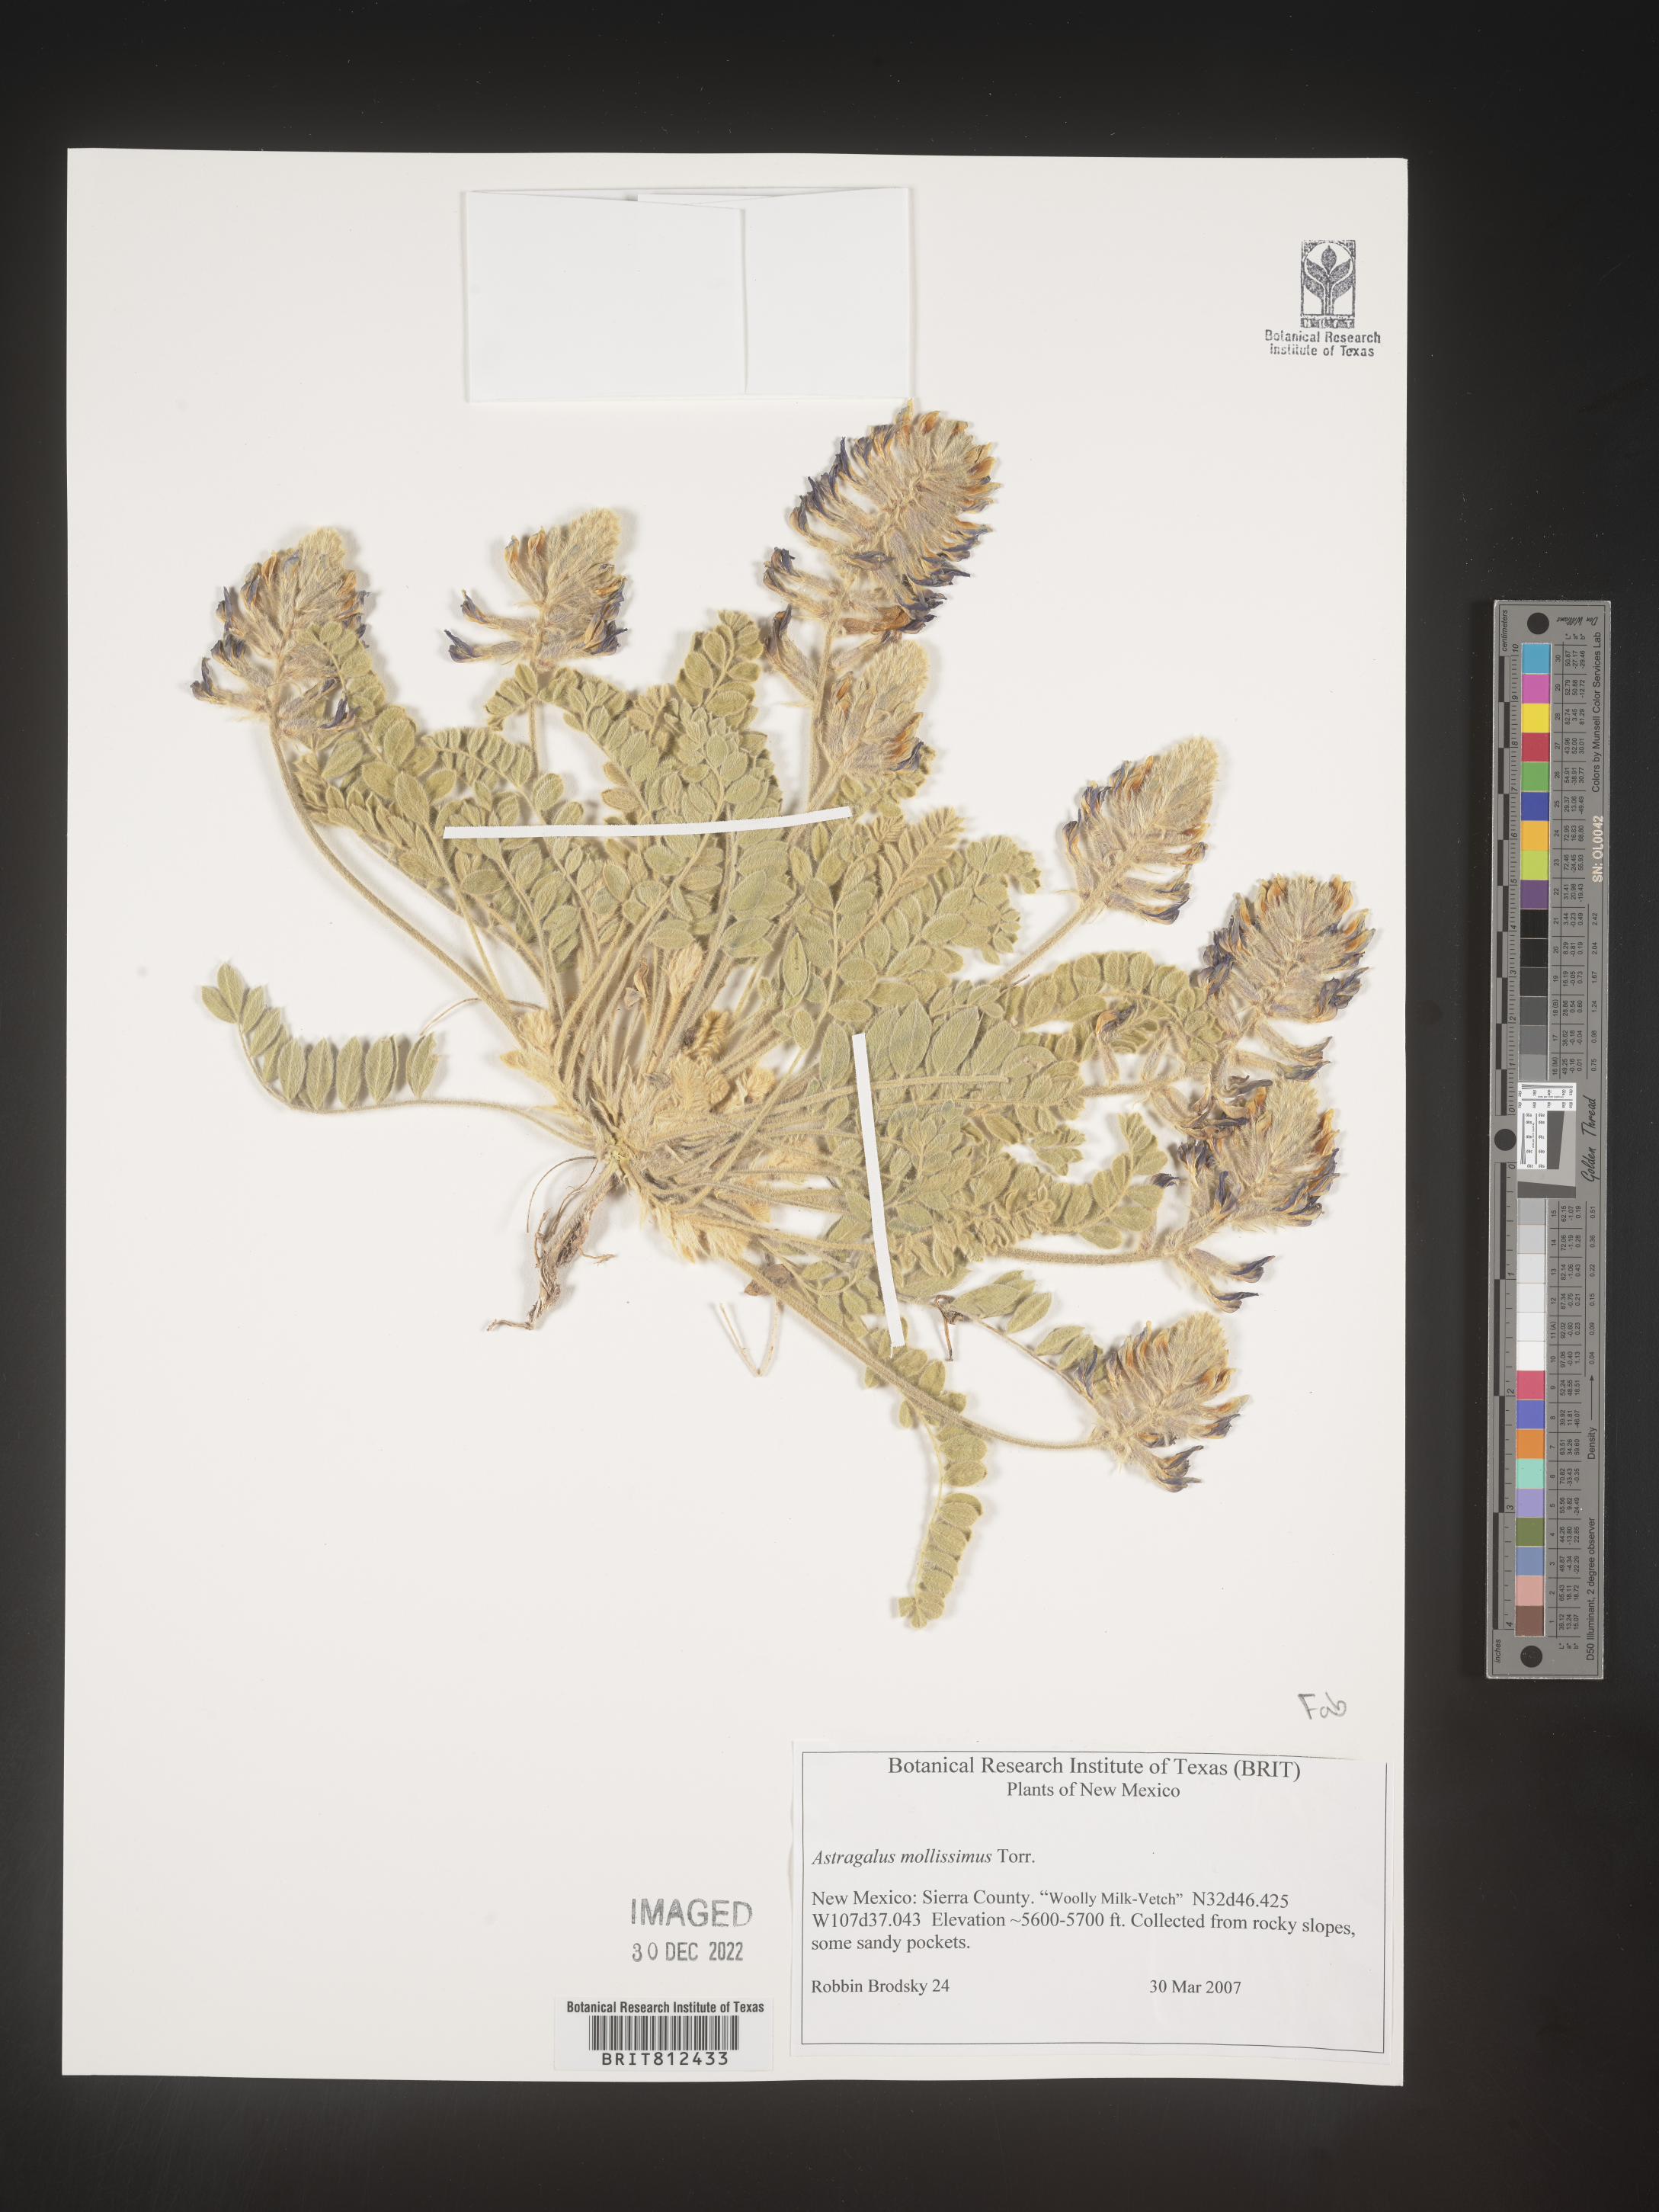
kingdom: Plantae
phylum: Tracheophyta
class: Magnoliopsida
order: Fabales
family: Fabaceae
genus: Astragalus
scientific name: Astragalus
